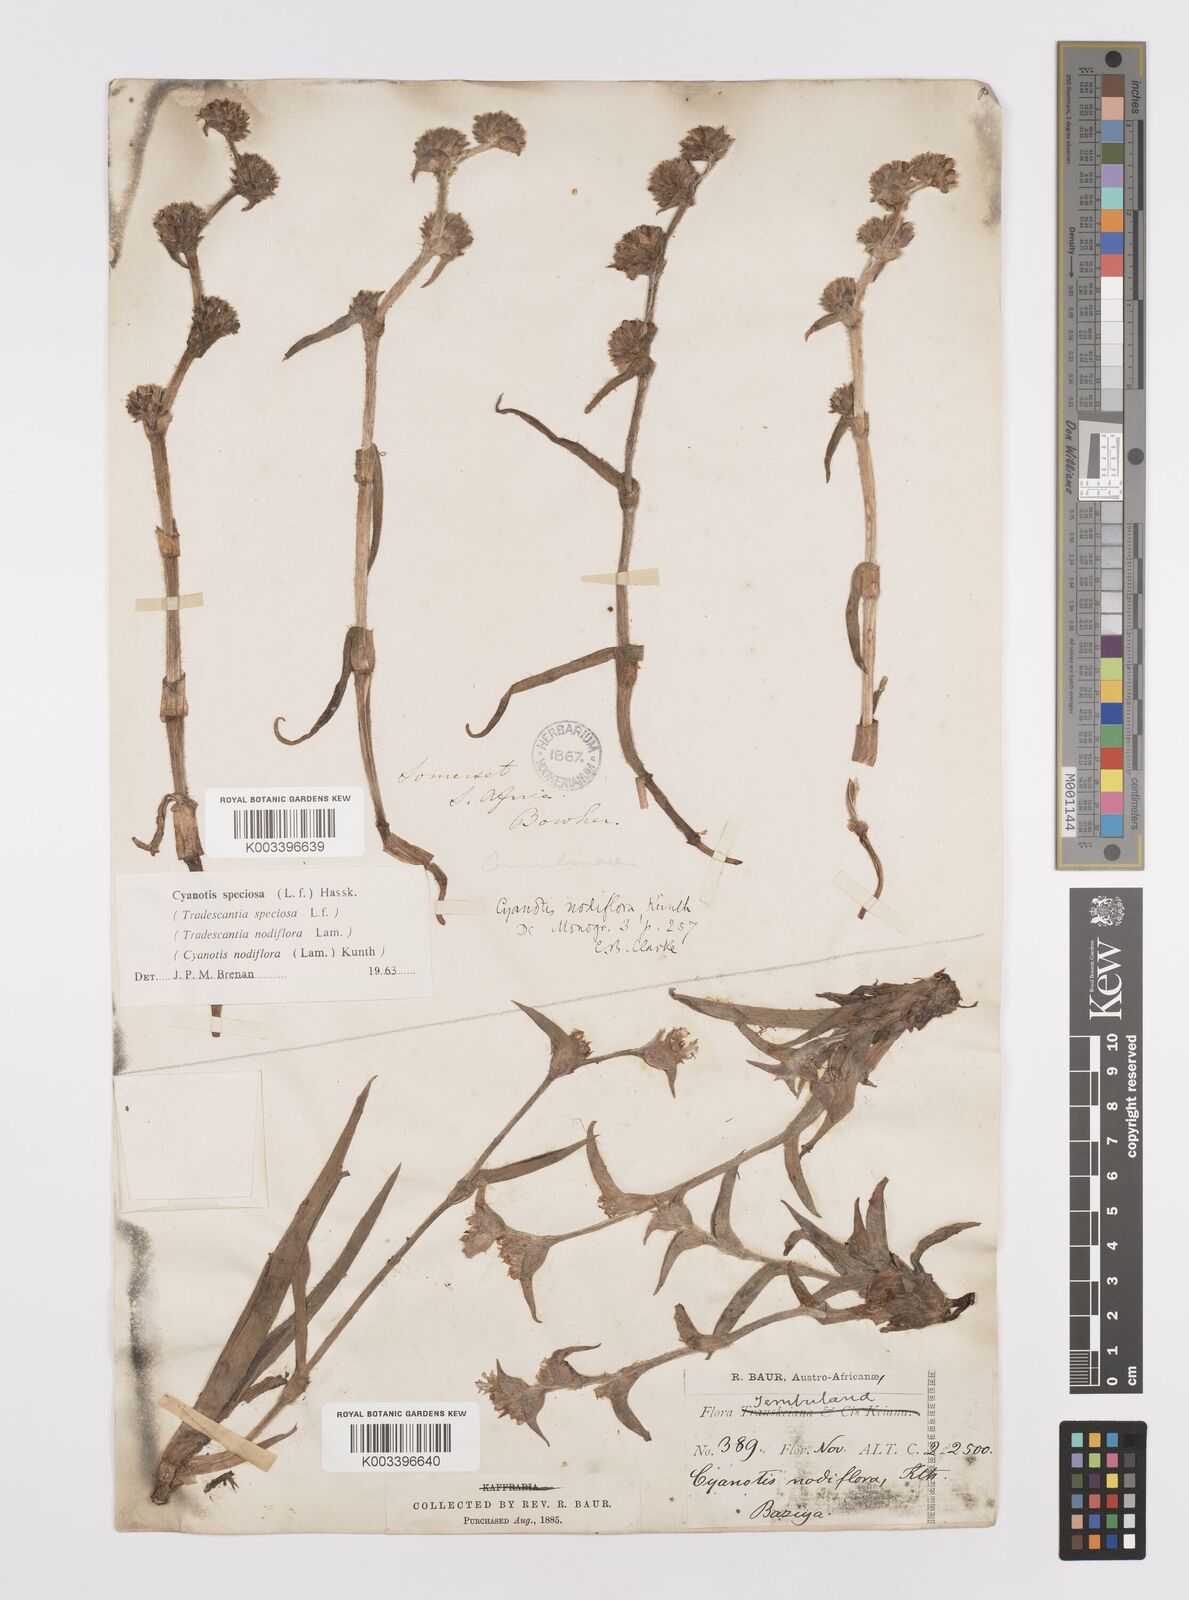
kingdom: Plantae
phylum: Tracheophyta
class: Liliopsida
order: Commelinales
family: Commelinaceae
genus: Cyanotis
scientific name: Cyanotis speciosa
